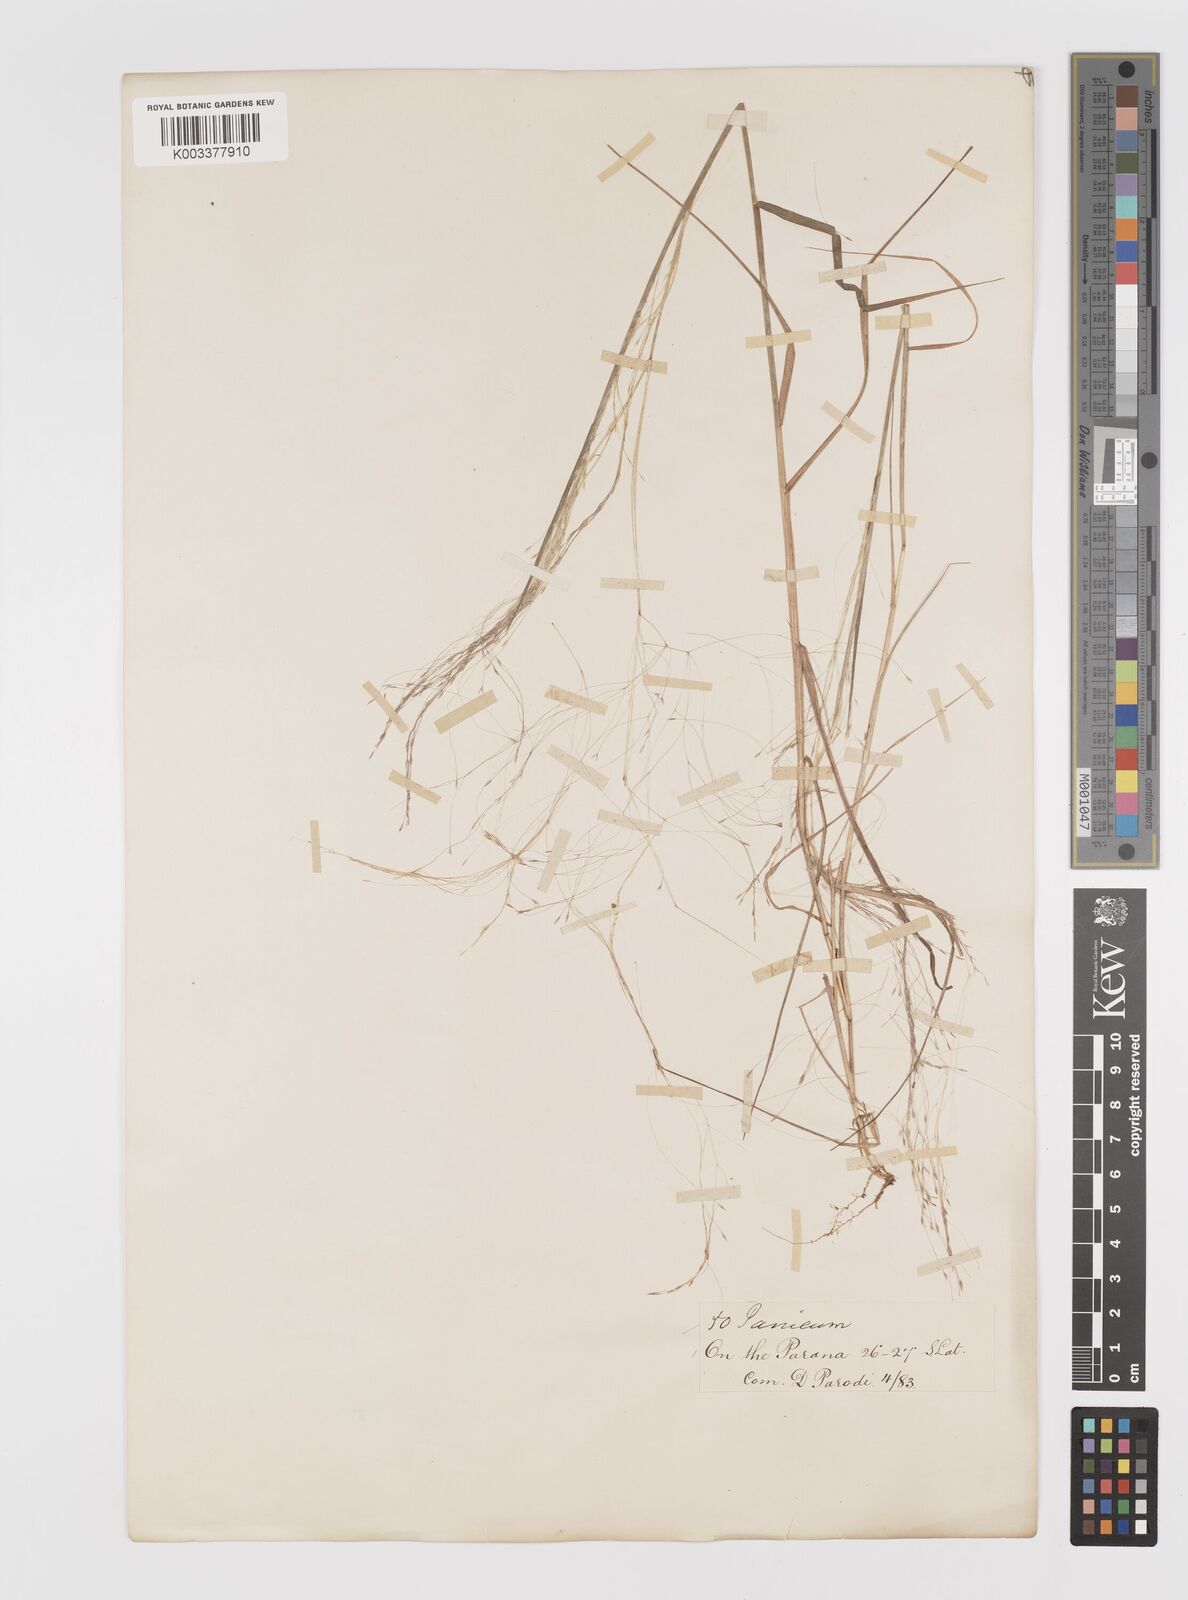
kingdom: Plantae
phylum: Tracheophyta
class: Liliopsida
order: Poales
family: Poaceae
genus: Panicum
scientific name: Panicum
